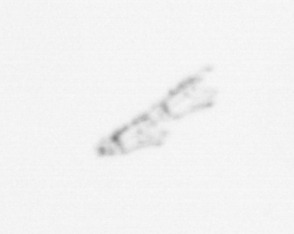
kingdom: Animalia
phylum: Cnidaria
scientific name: Cnidaria
